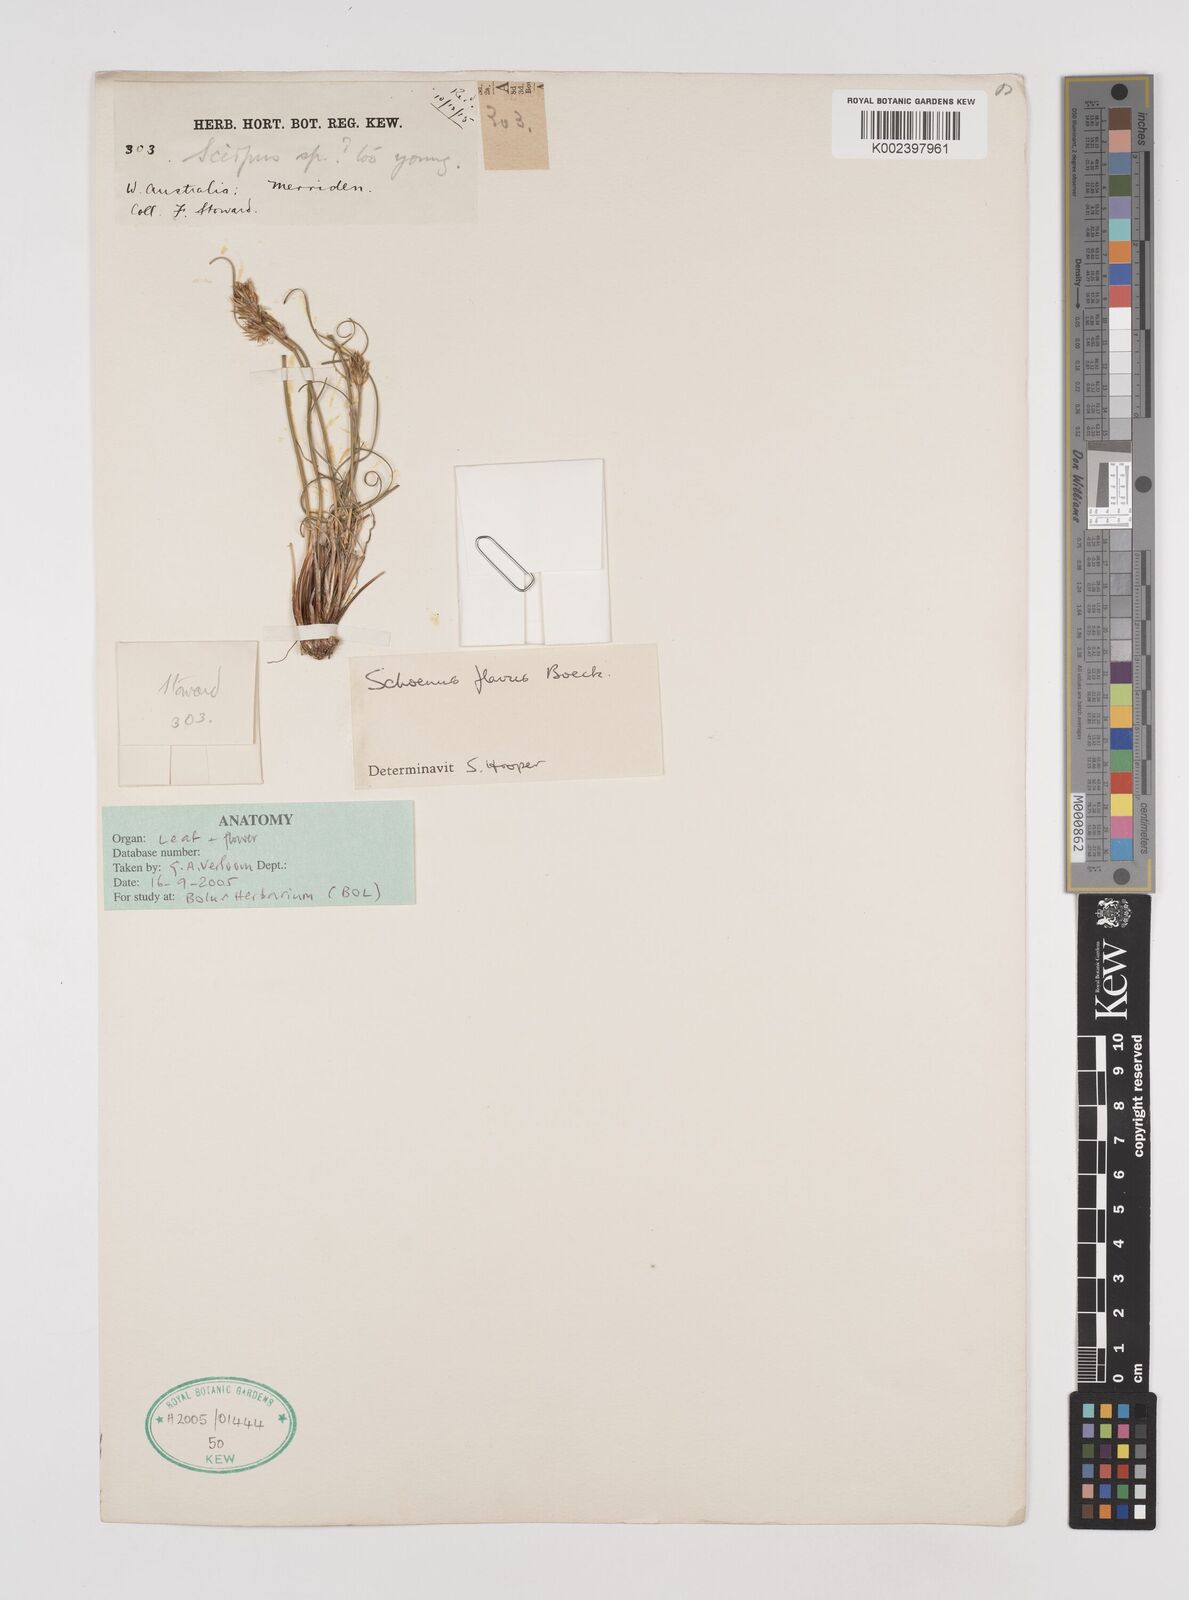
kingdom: Plantae
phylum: Tracheophyta
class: Liliopsida
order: Poales
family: Cyperaceae
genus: Schoenus
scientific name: Schoenus subflavus
